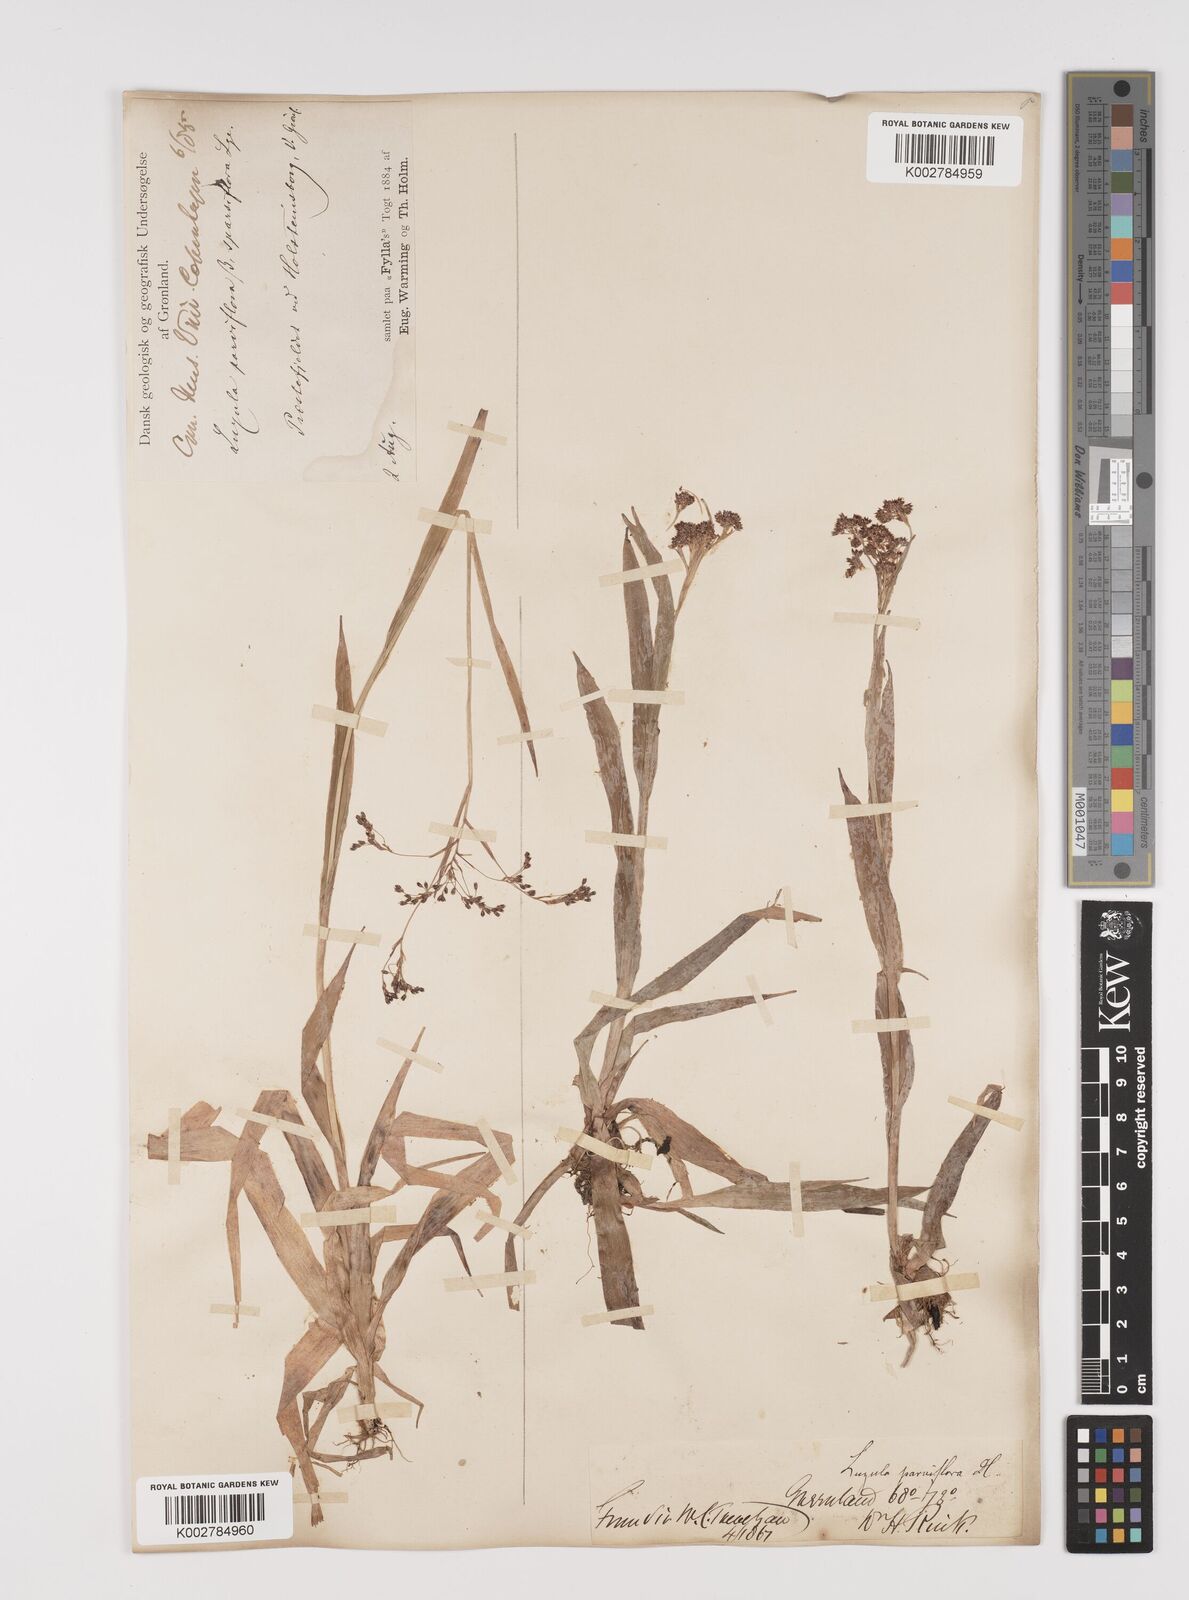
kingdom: Plantae
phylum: Tracheophyta
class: Liliopsida
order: Poales
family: Juncaceae
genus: Luzula
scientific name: Luzula parviflora
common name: Millet woodrush
